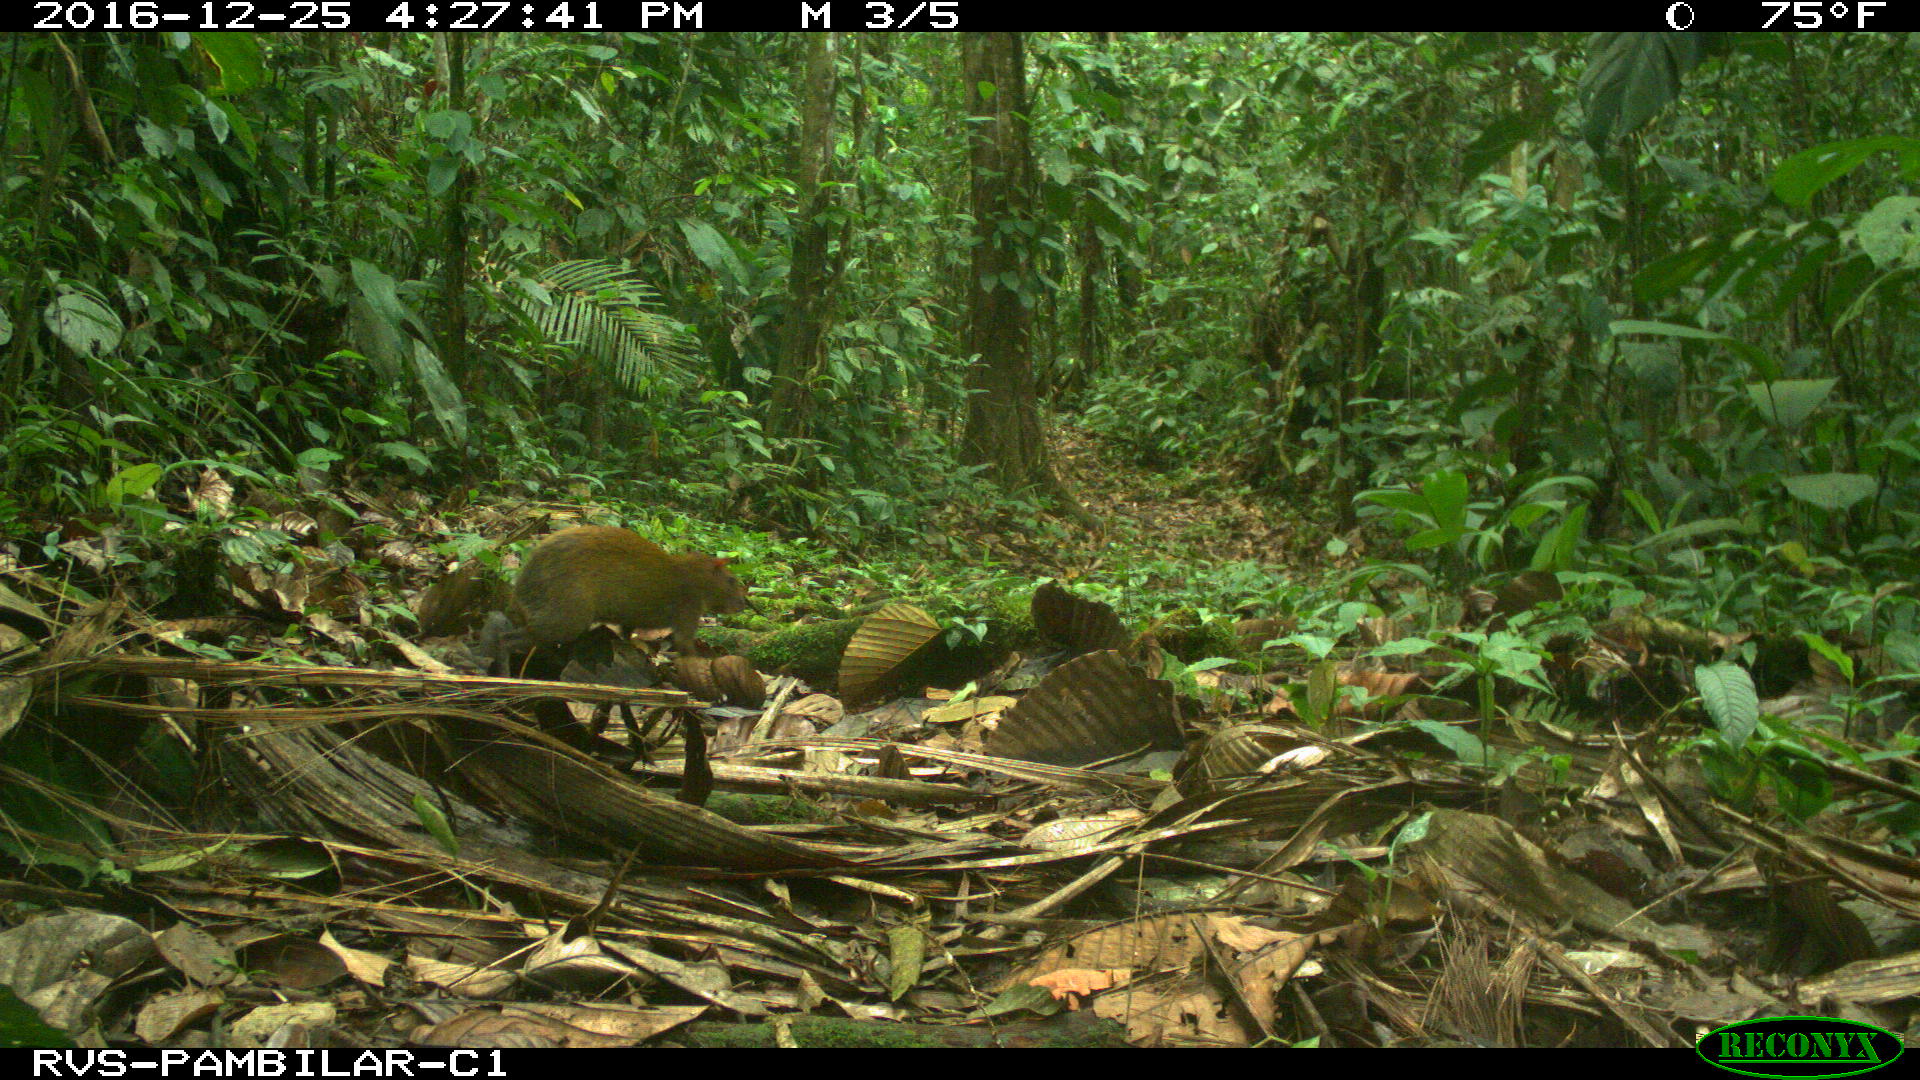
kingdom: Animalia
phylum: Chordata
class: Mammalia
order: Rodentia
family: Dasyproctidae
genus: Dasyprocta
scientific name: Dasyprocta punctata
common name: Central american agouti
